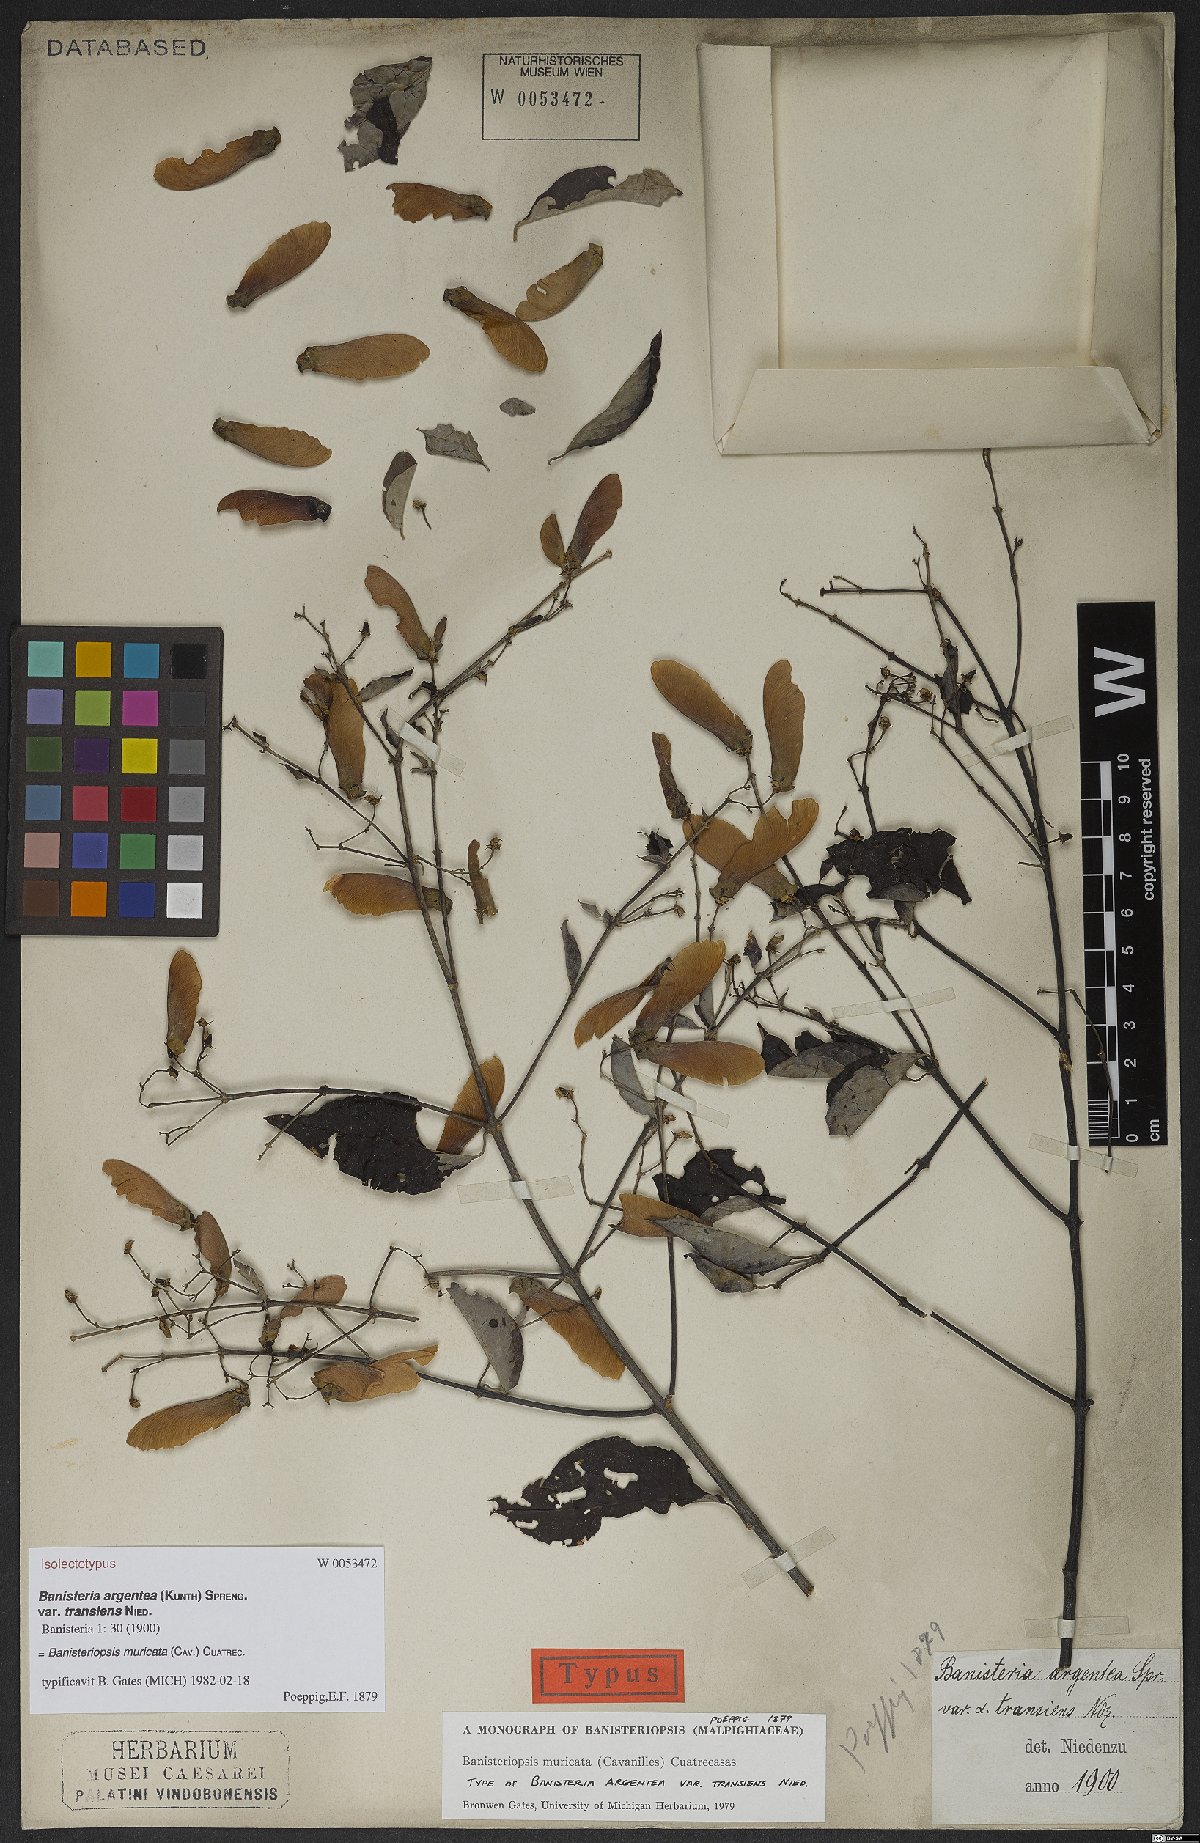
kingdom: Plantae
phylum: Tracheophyta
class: Magnoliopsida
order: Malpighiales
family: Malpighiaceae
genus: Banisteriopsis
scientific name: Banisteriopsis muricata
